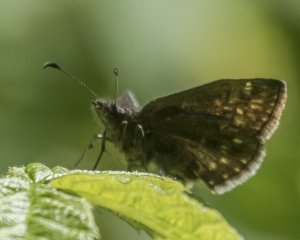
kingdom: Animalia
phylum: Arthropoda
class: Insecta
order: Lepidoptera
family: Hesperiidae
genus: Erynnis
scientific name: Erynnis icelus
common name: Dreamy Duskywing
